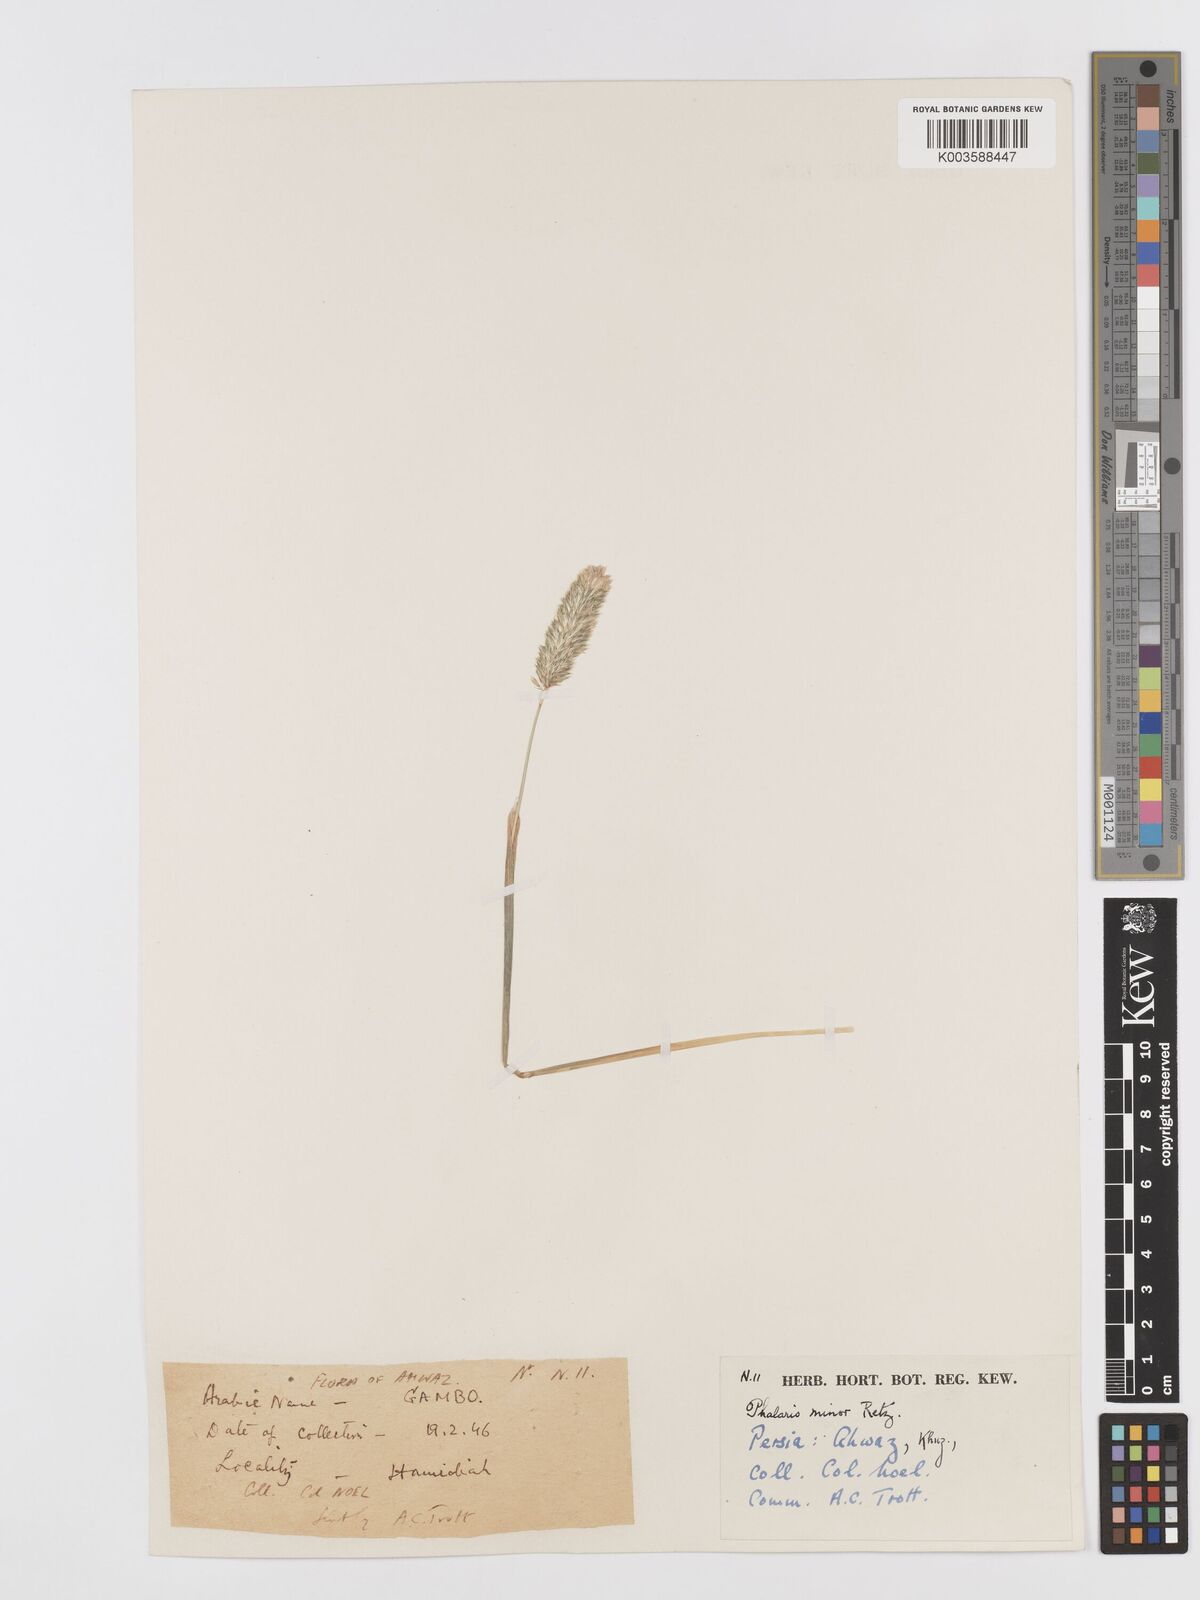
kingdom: Plantae
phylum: Tracheophyta
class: Liliopsida
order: Poales
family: Poaceae
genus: Phalaris
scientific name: Phalaris minor
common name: Littleseed canarygrass
